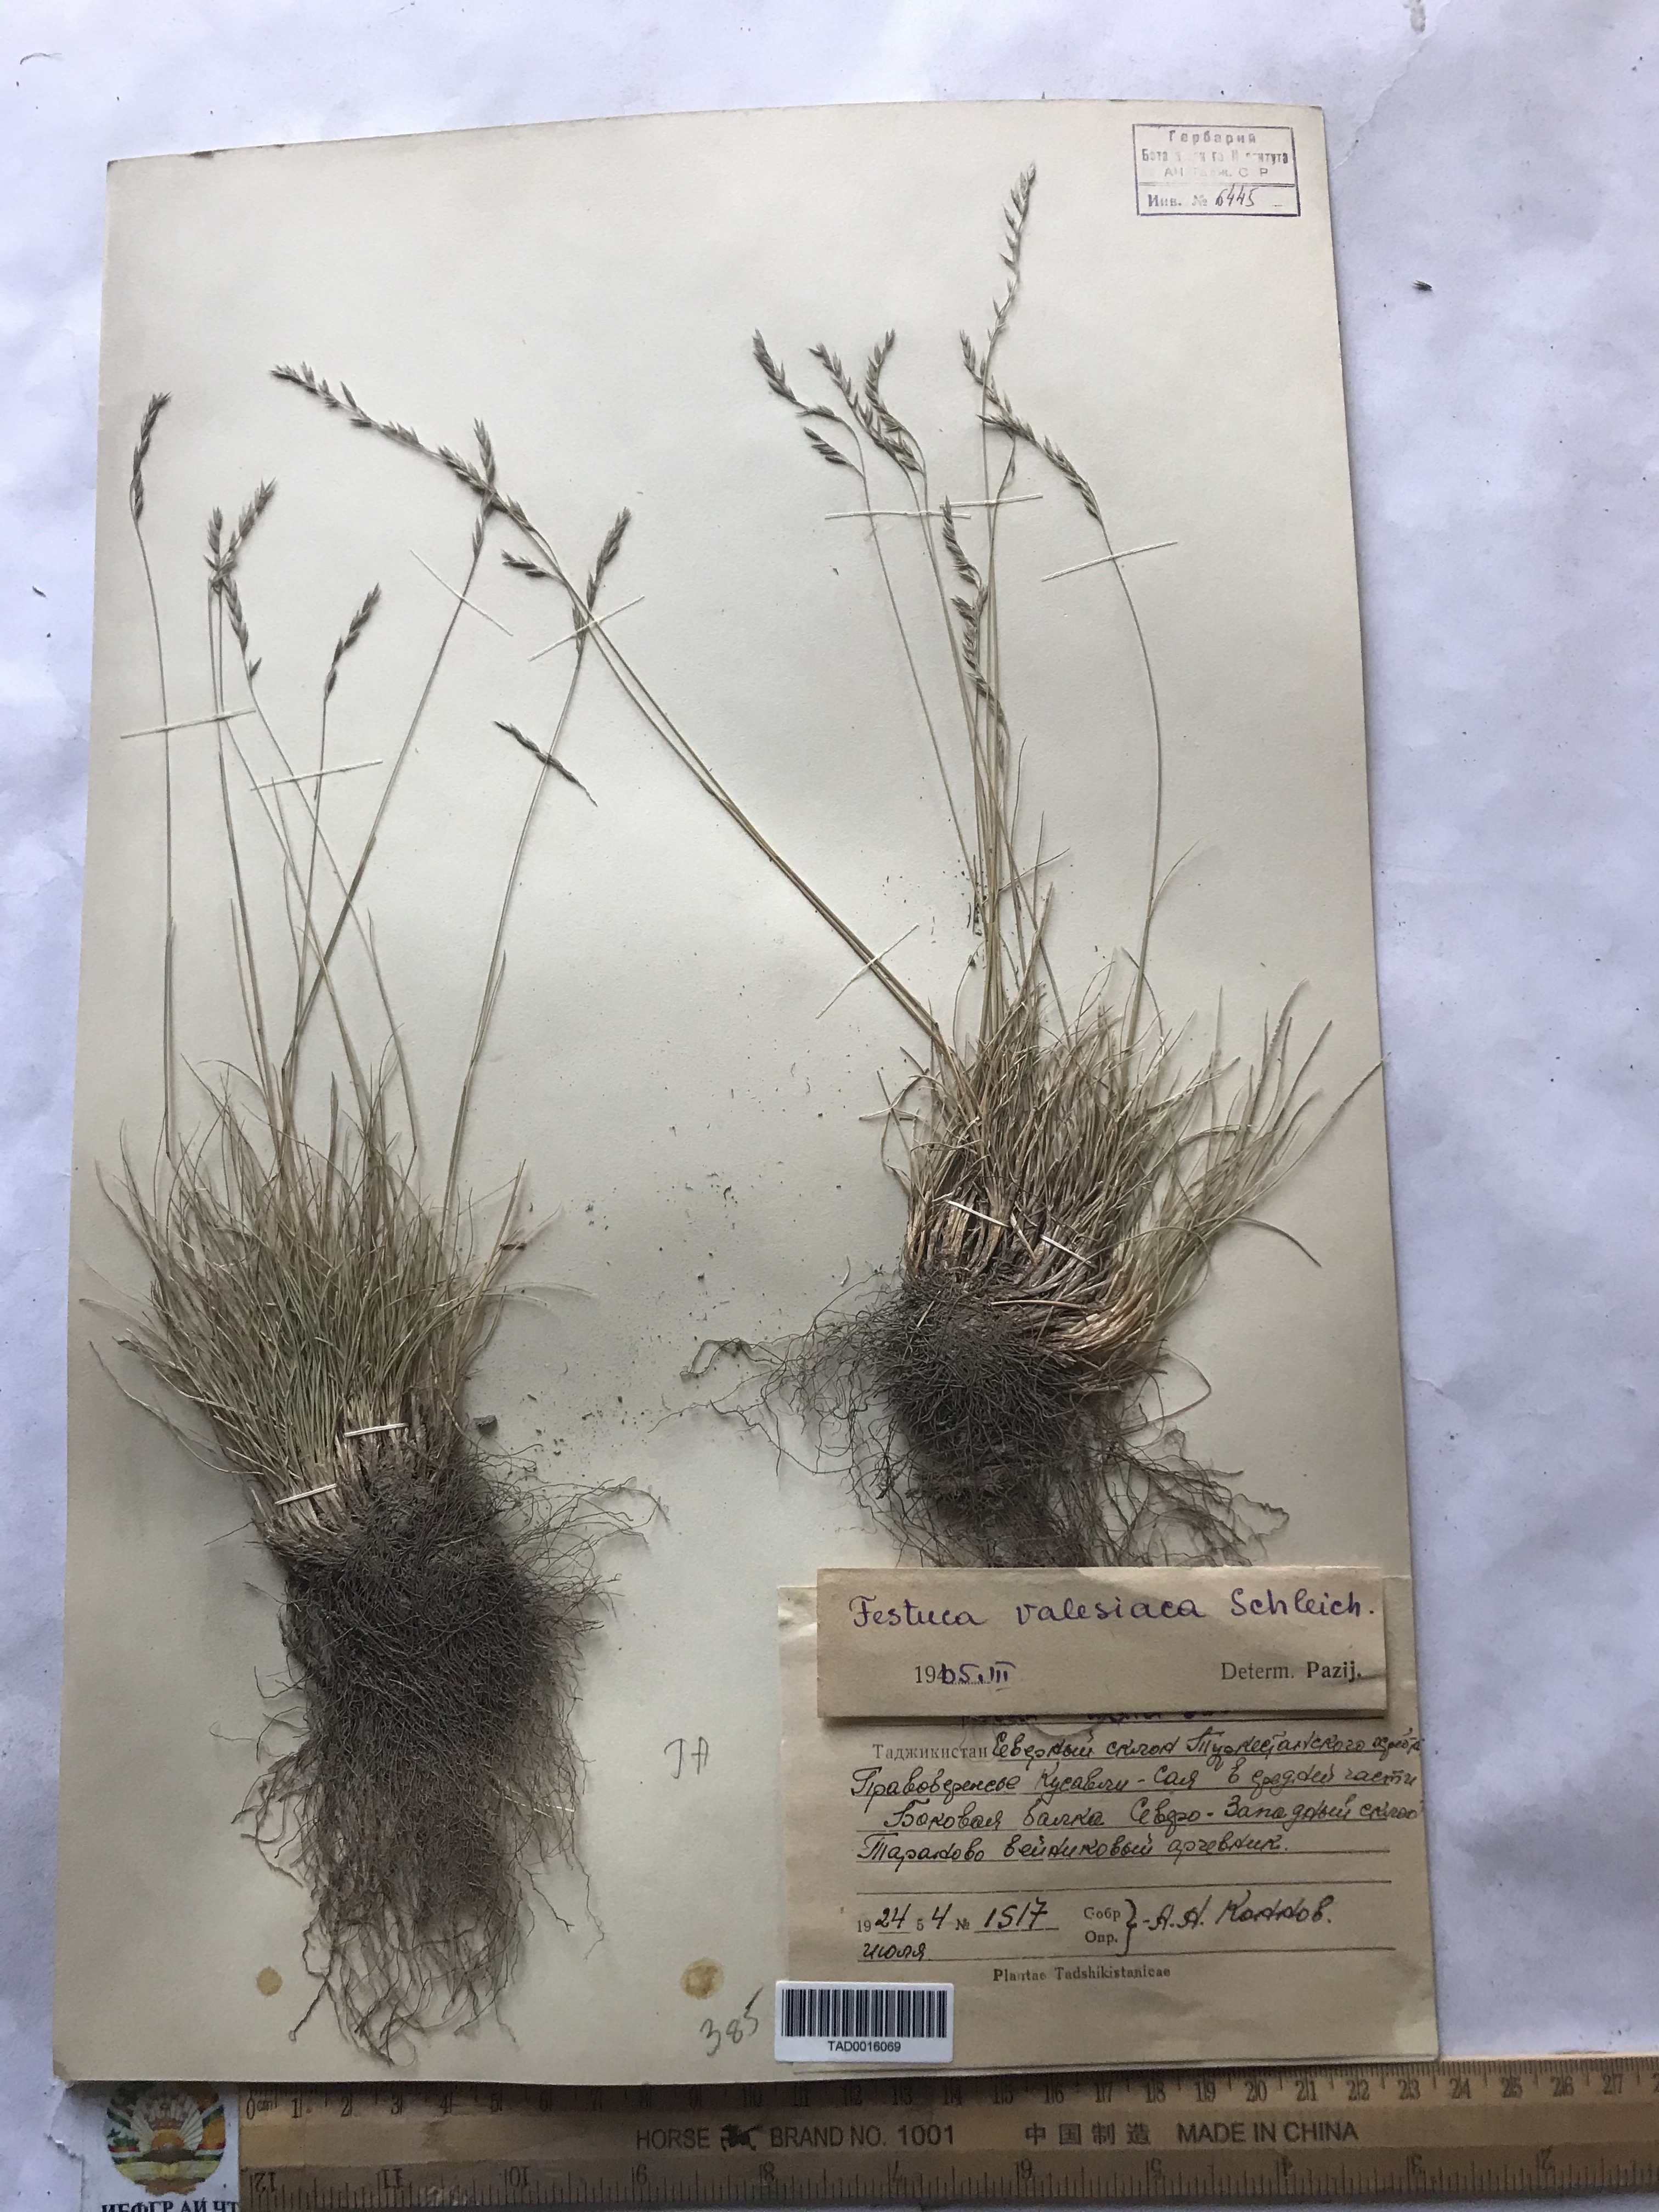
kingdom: Plantae
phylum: Tracheophyta
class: Liliopsida
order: Poales
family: Poaceae
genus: Festuca
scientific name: Festuca valesiaca
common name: Volga fescue
